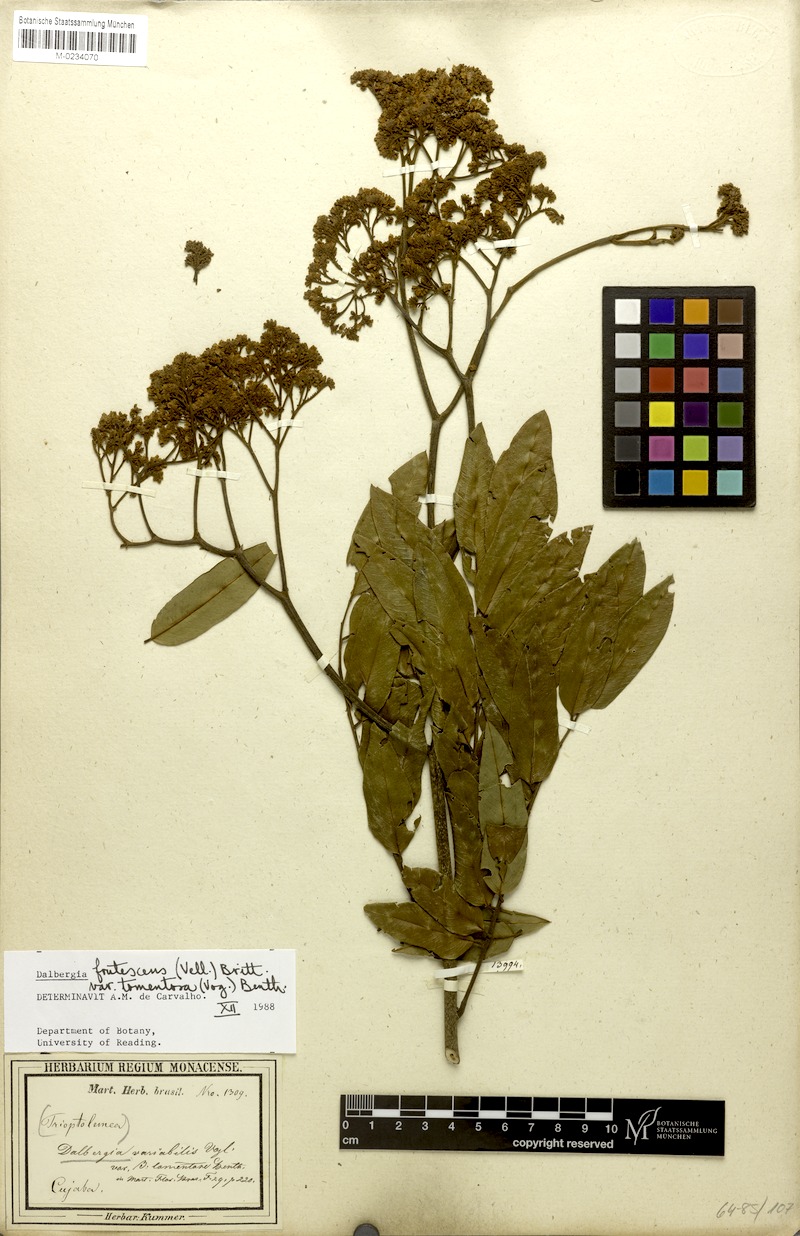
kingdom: Plantae
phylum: Tracheophyta
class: Magnoliopsida
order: Fabales
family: Fabaceae
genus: Dalbergia
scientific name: Dalbergia frutescens
